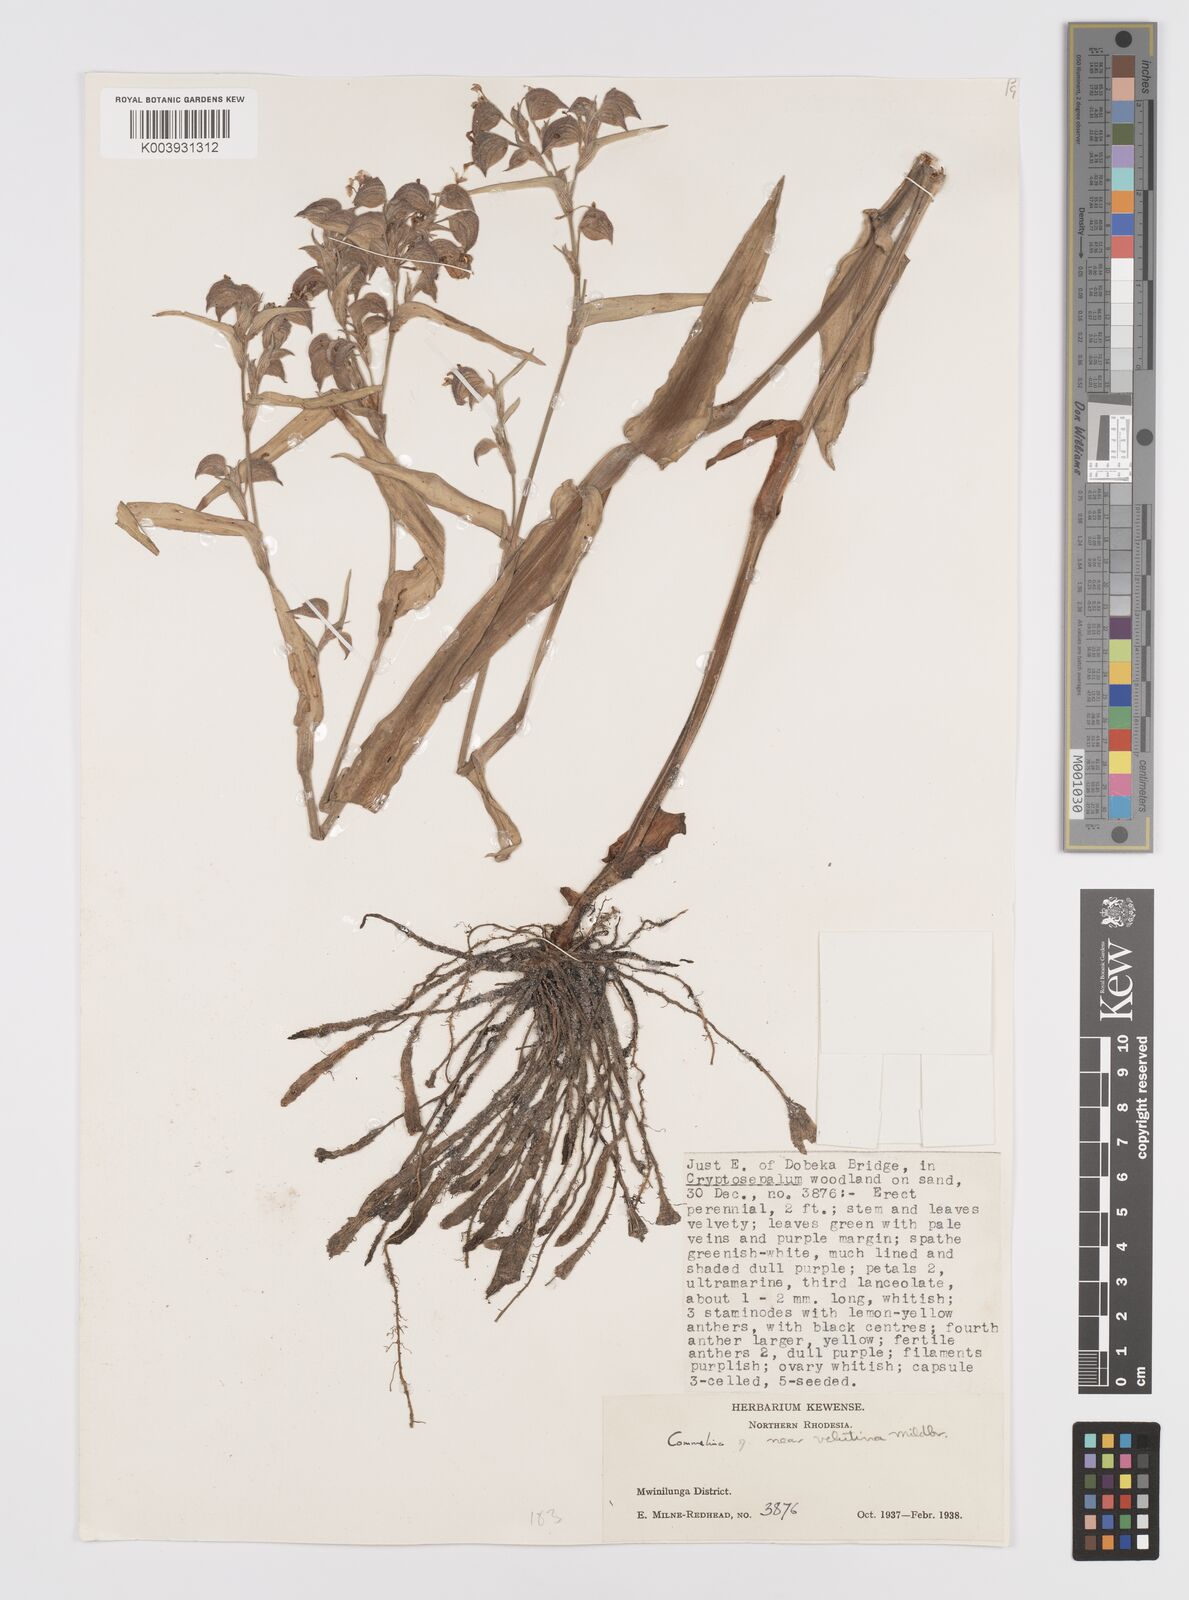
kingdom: Plantae
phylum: Tracheophyta
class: Liliopsida
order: Commelinales
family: Commelinaceae
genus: Commelina
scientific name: Commelina velutina
